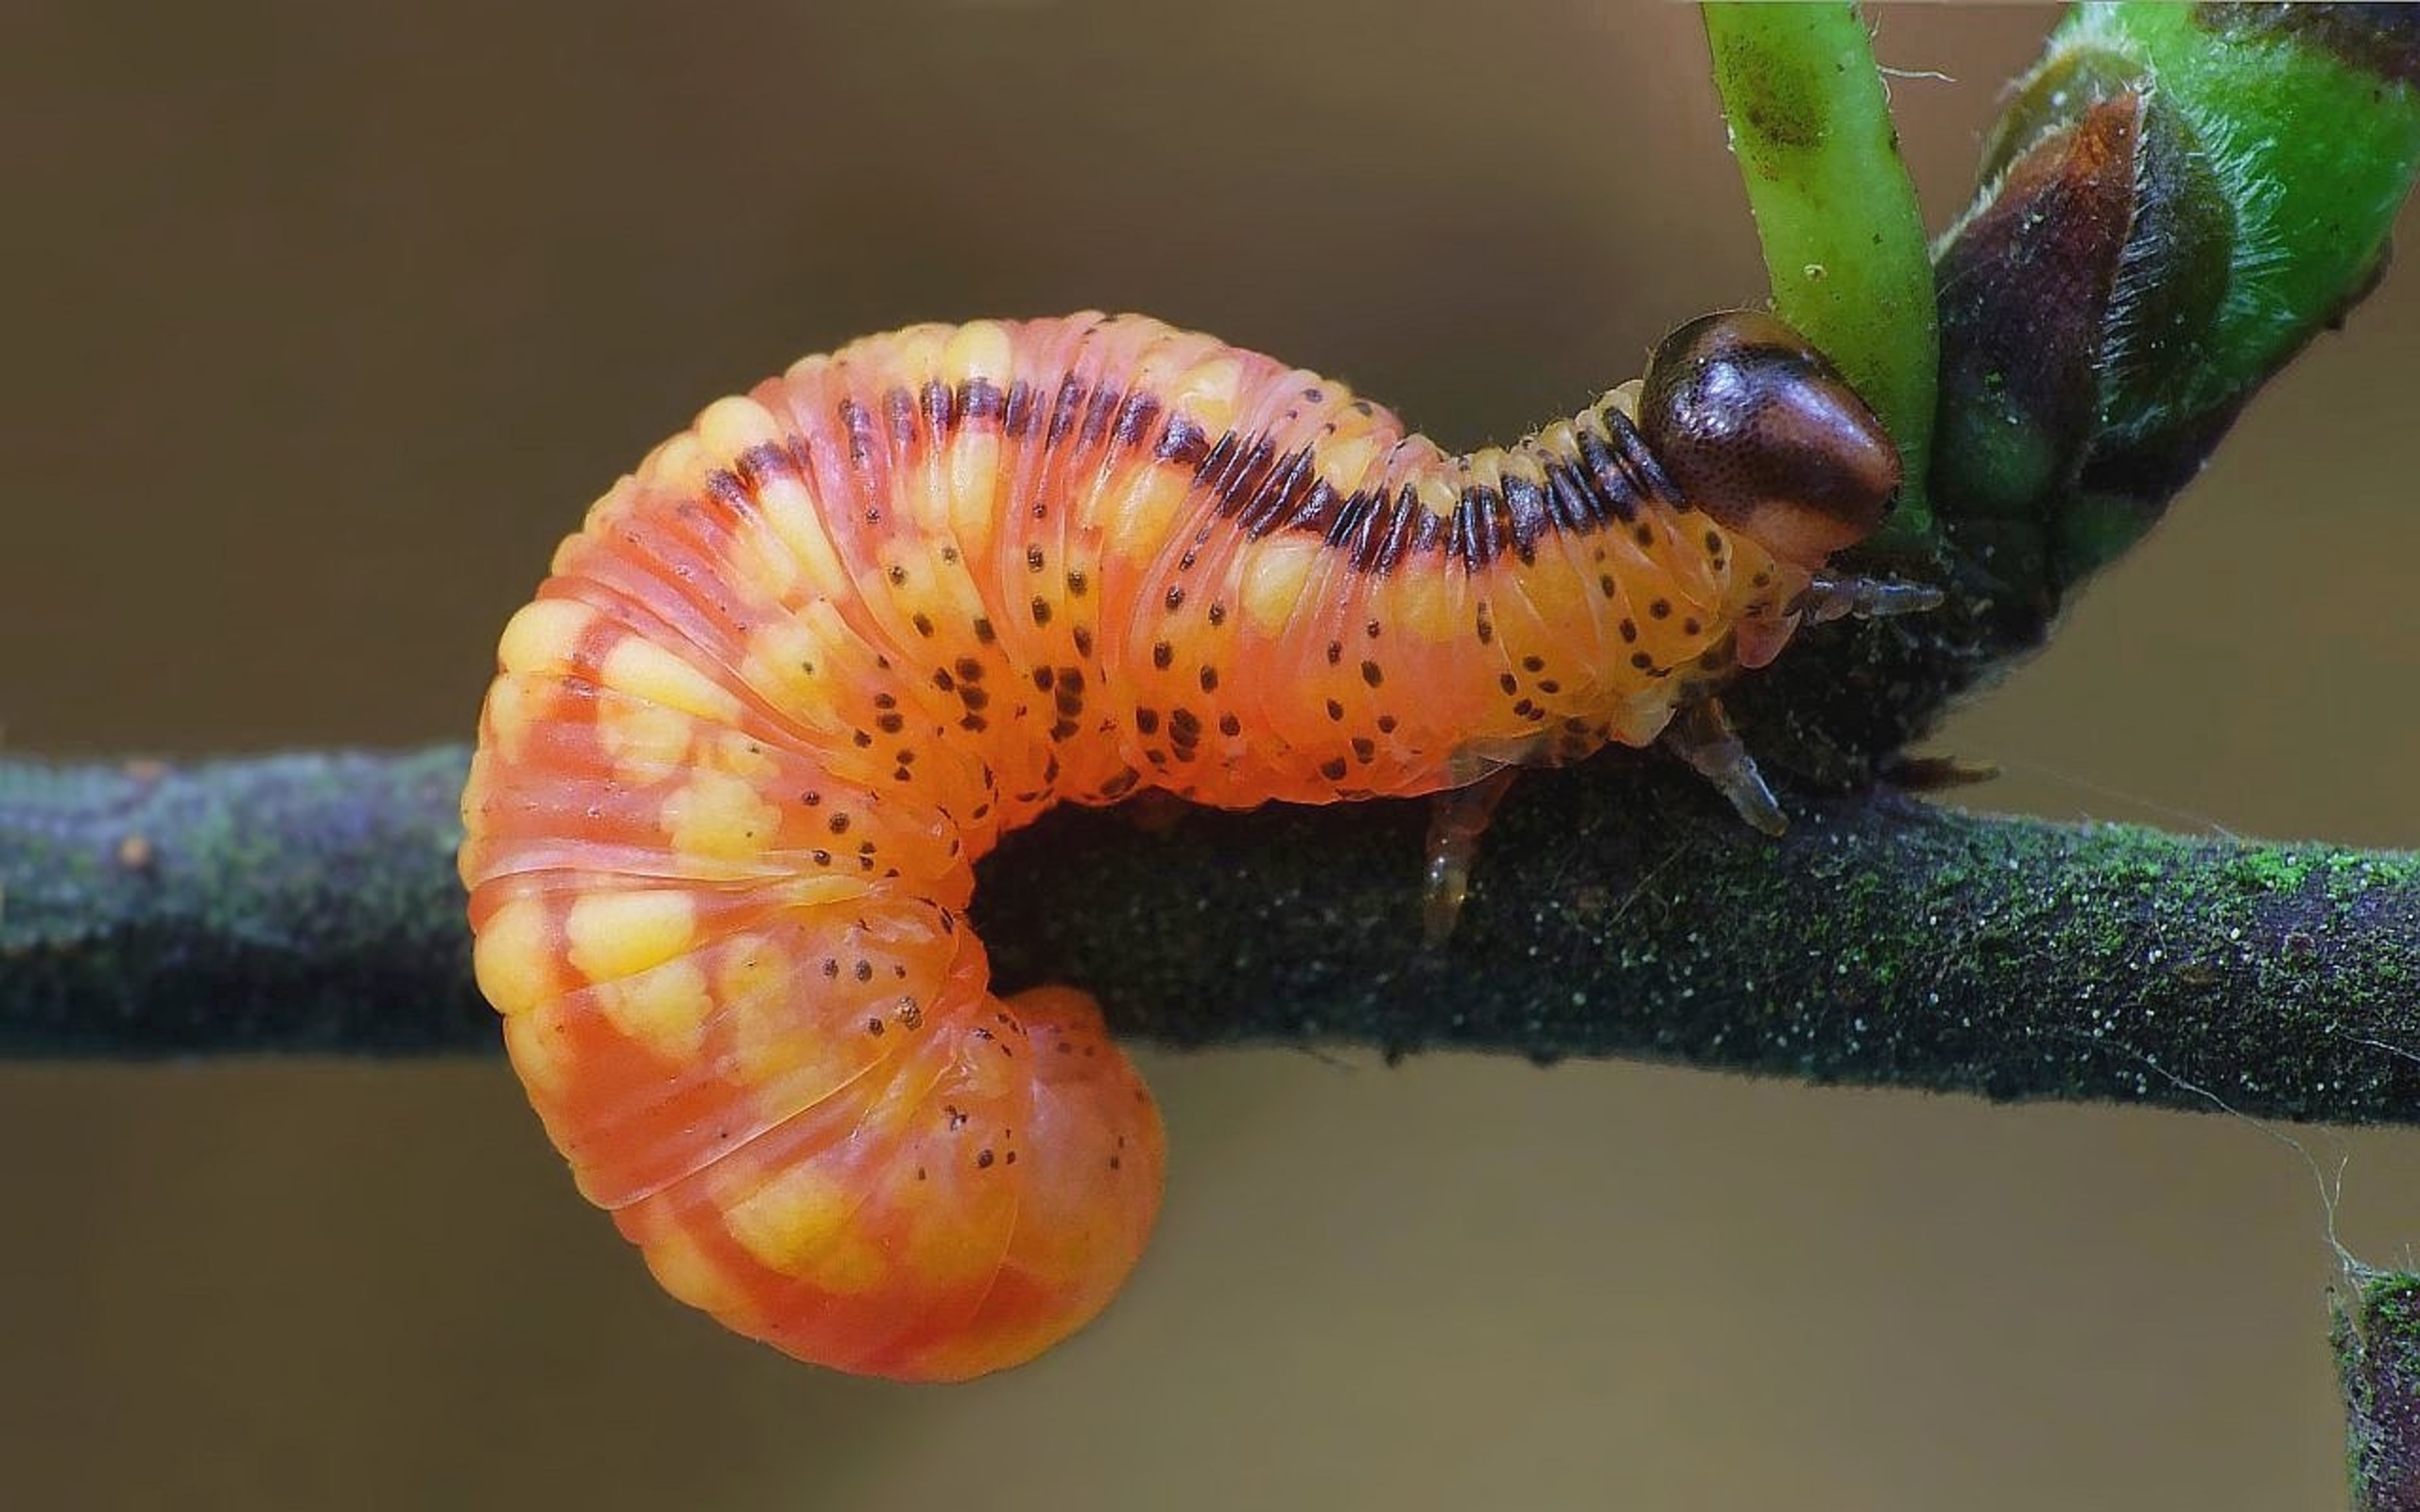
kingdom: Animalia
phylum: Arthropoda
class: Insecta
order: Hymenoptera
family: Tenthredinidae
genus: Pristiphora
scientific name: Pristiphora cincta
